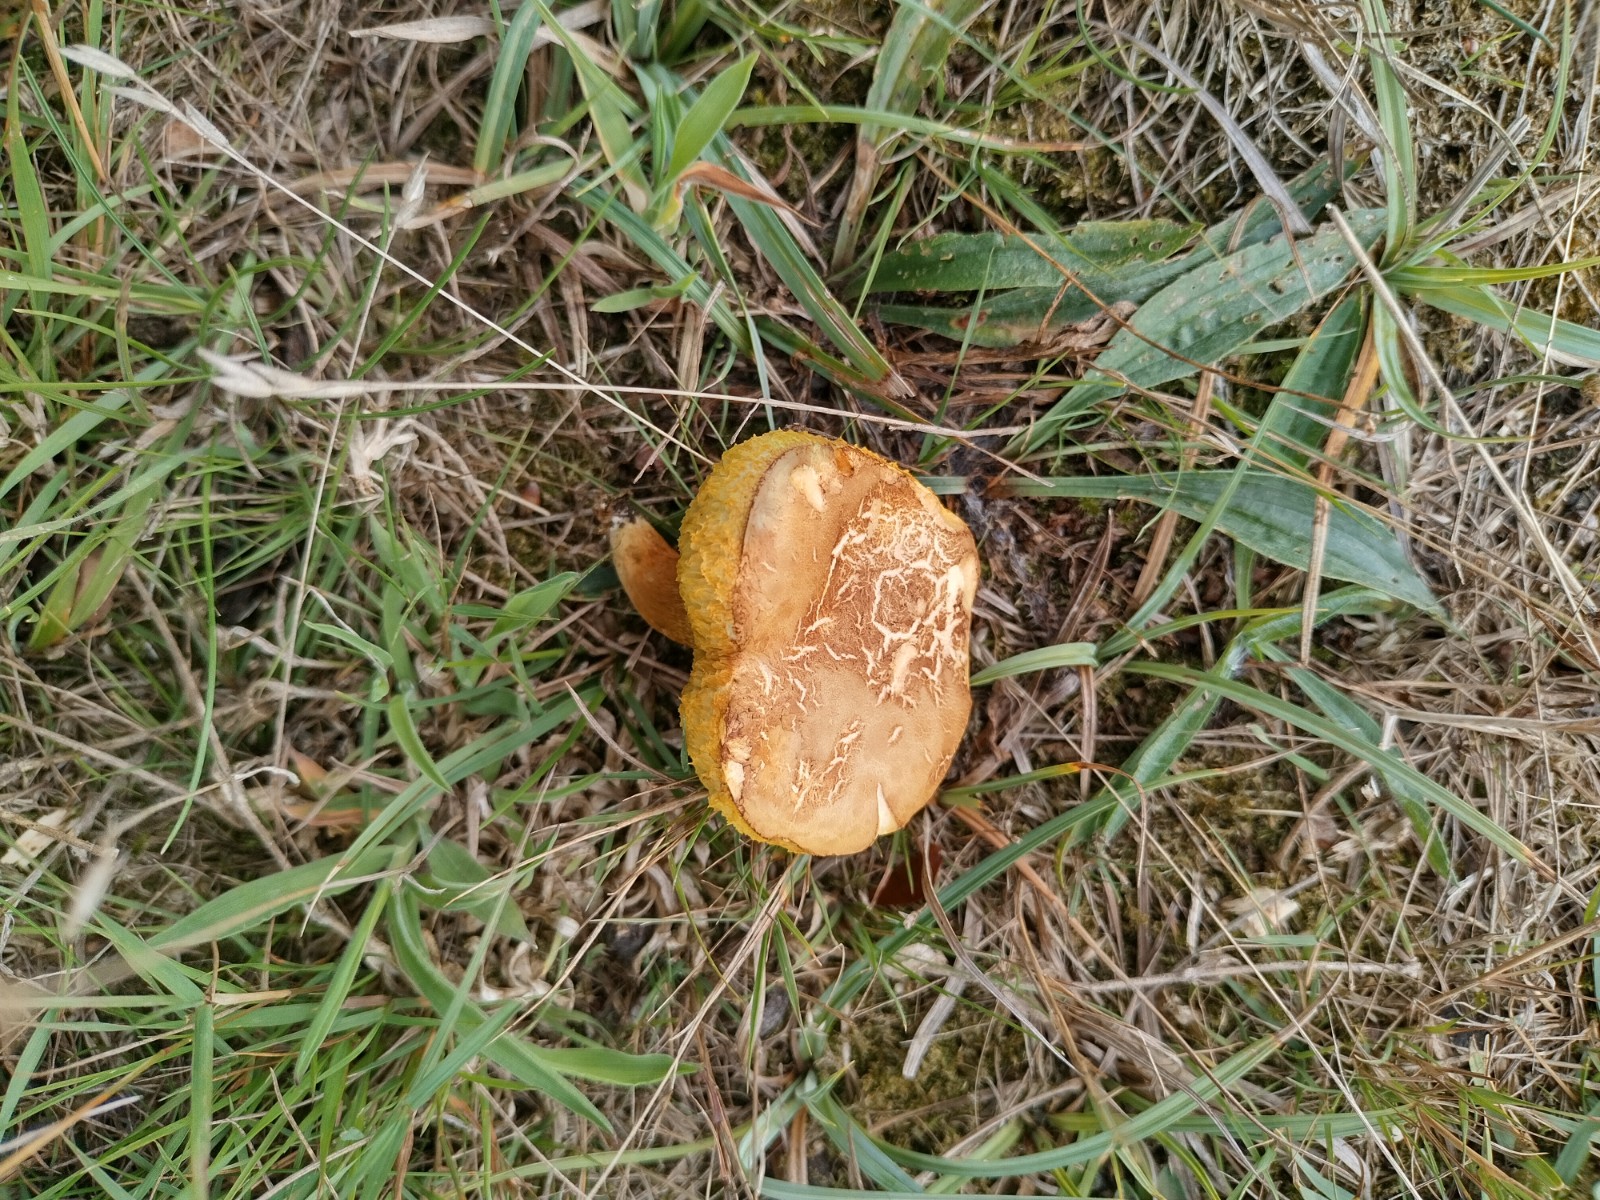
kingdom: Fungi
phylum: Basidiomycota
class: Agaricomycetes
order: Boletales
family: Boletaceae
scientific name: Boletaceae
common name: rørhatfamilien
